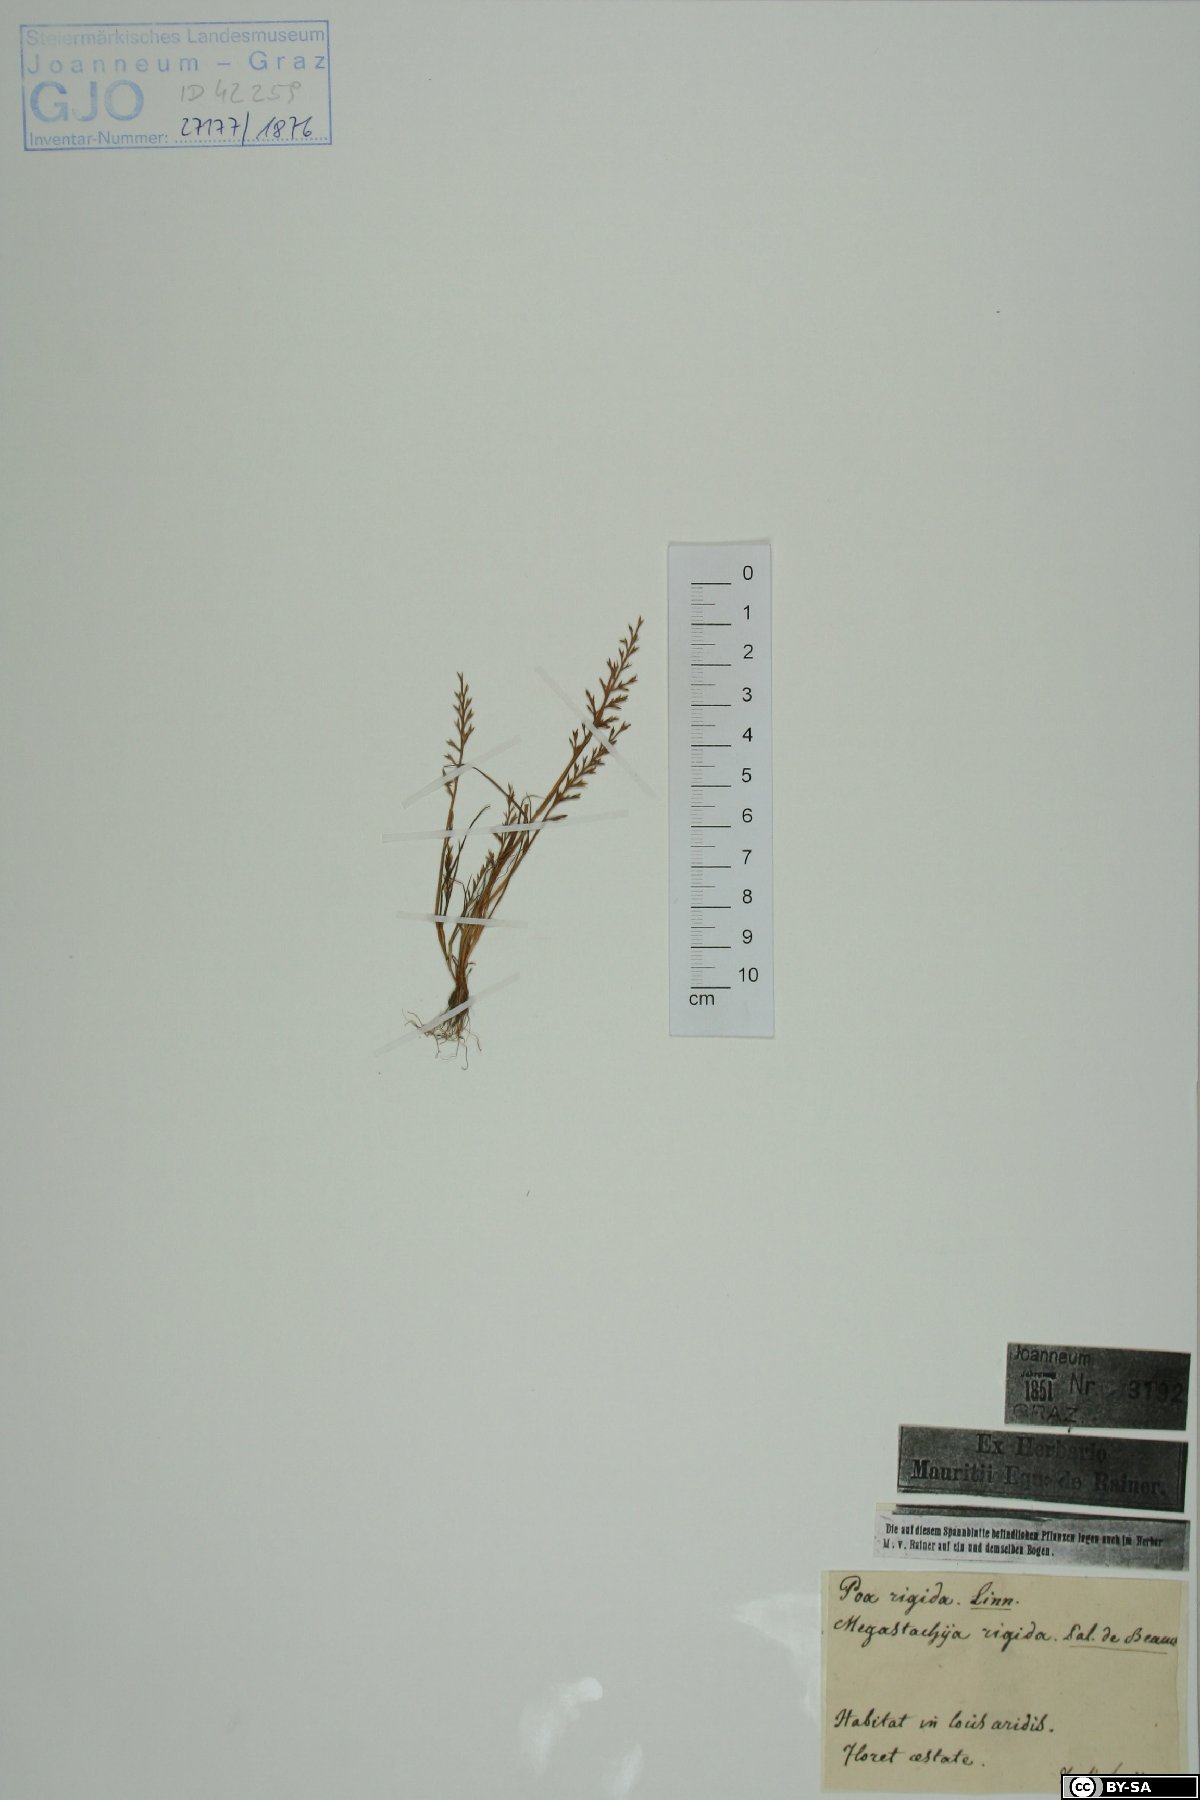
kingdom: Plantae
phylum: Tracheophyta
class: Liliopsida
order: Poales
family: Poaceae
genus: Catapodium
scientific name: Catapodium rigidum
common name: Fern-grass
